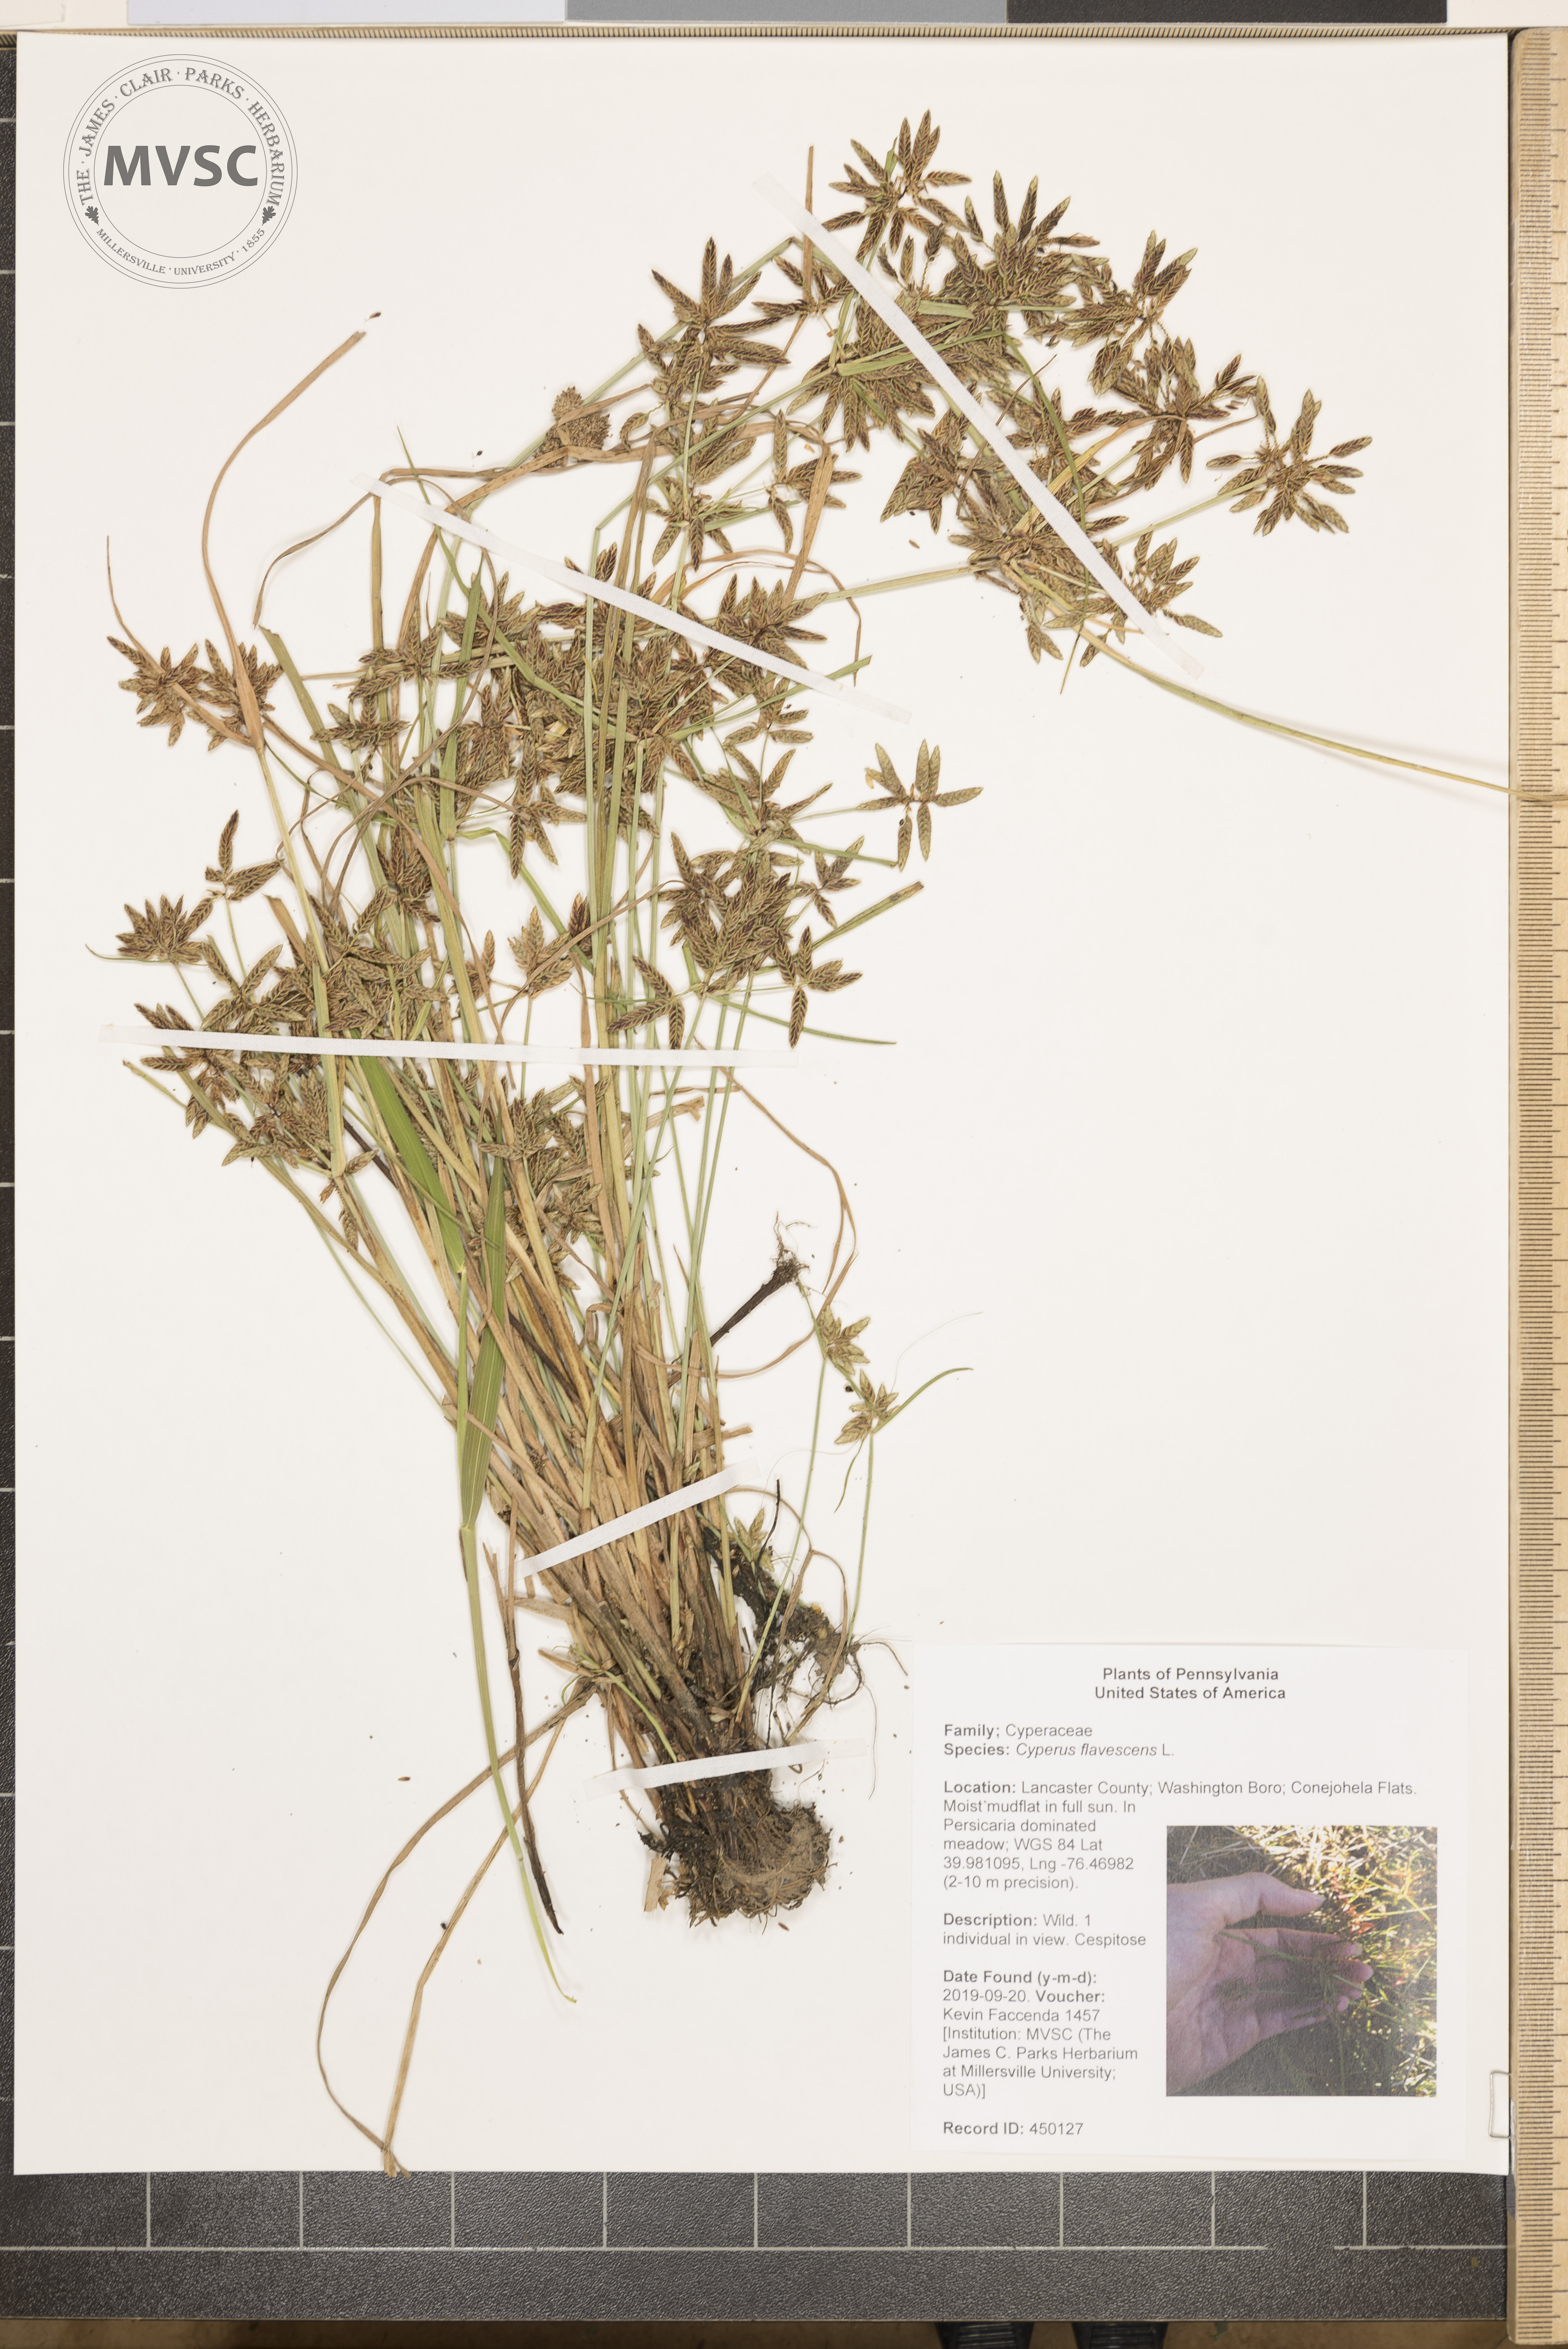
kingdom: Plantae
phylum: Tracheophyta
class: Liliopsida
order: Poales
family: Cyperaceae
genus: Cyperus
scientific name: Cyperus flavescens
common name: Yellow galingale
